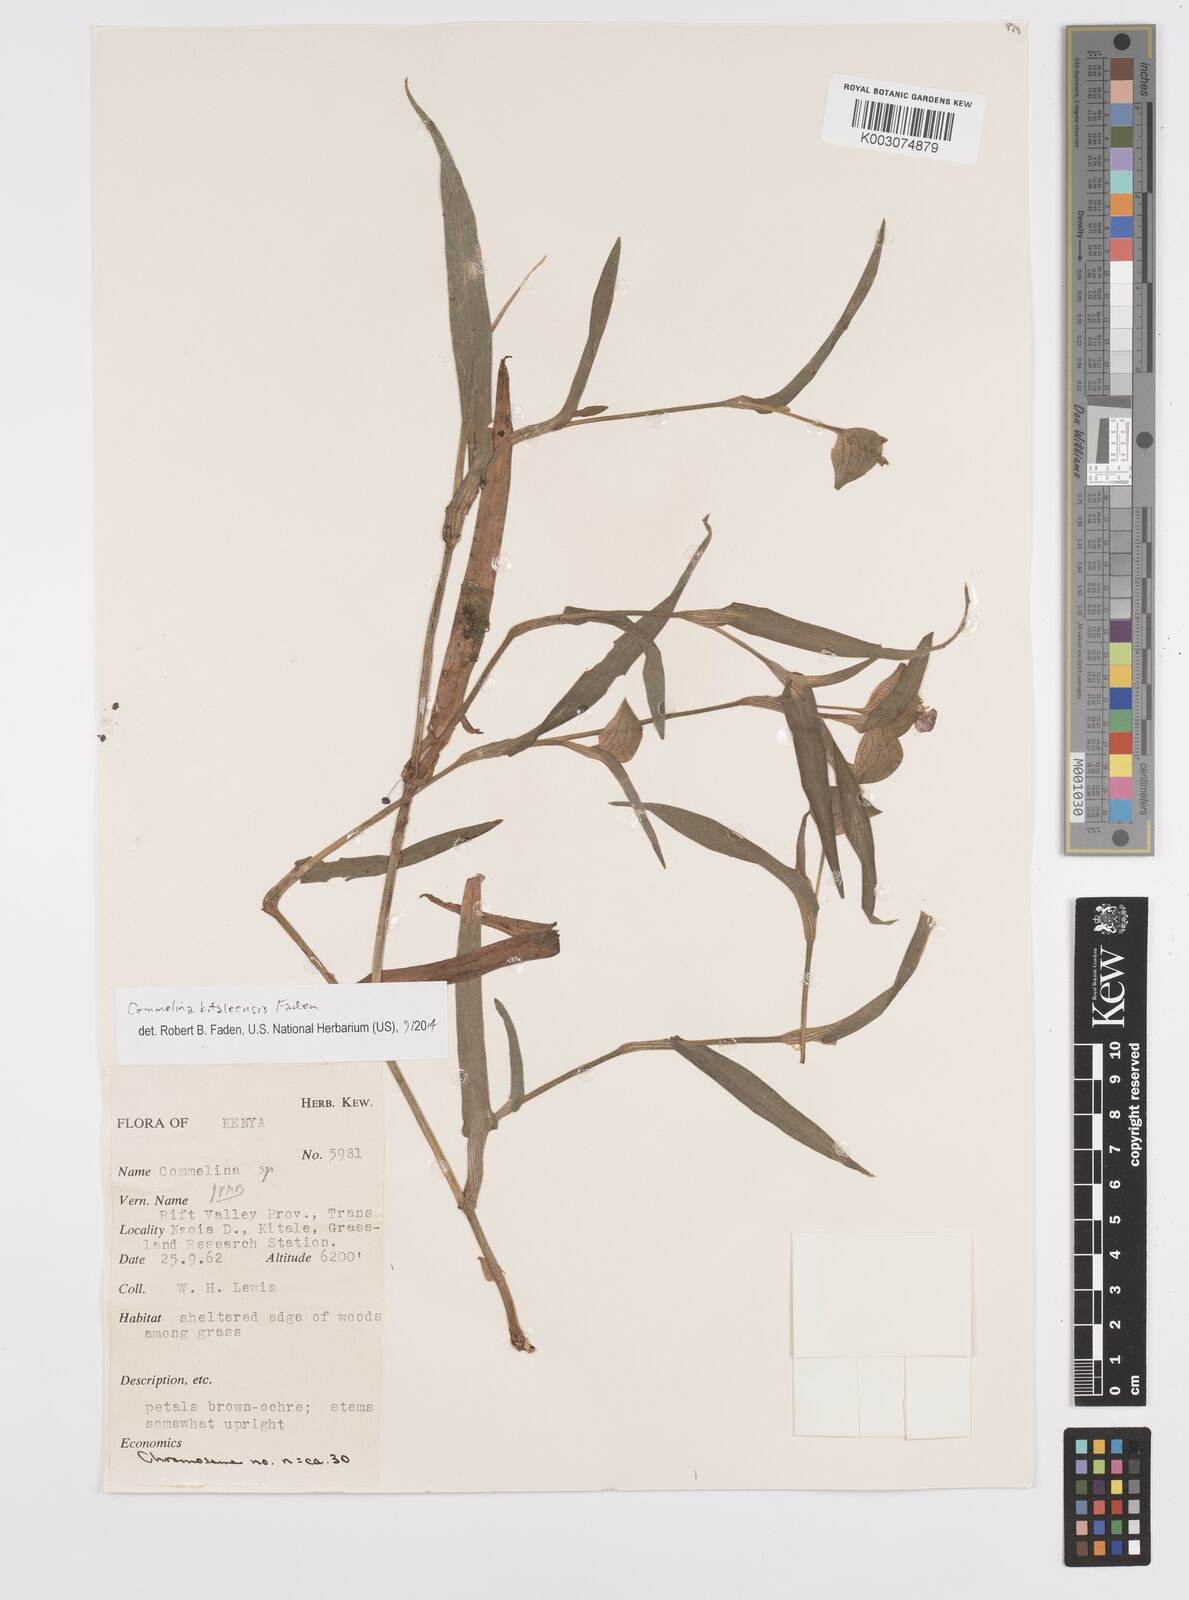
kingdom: Plantae
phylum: Tracheophyta
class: Liliopsida
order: Commelinales
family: Commelinaceae
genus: Commelina
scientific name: Commelina kitaleensis
